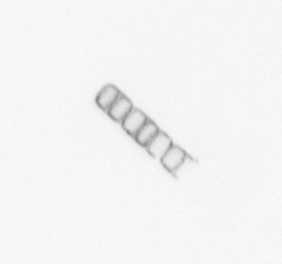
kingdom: Chromista
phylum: Ochrophyta
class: Bacillariophyceae
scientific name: Bacillariophyceae
